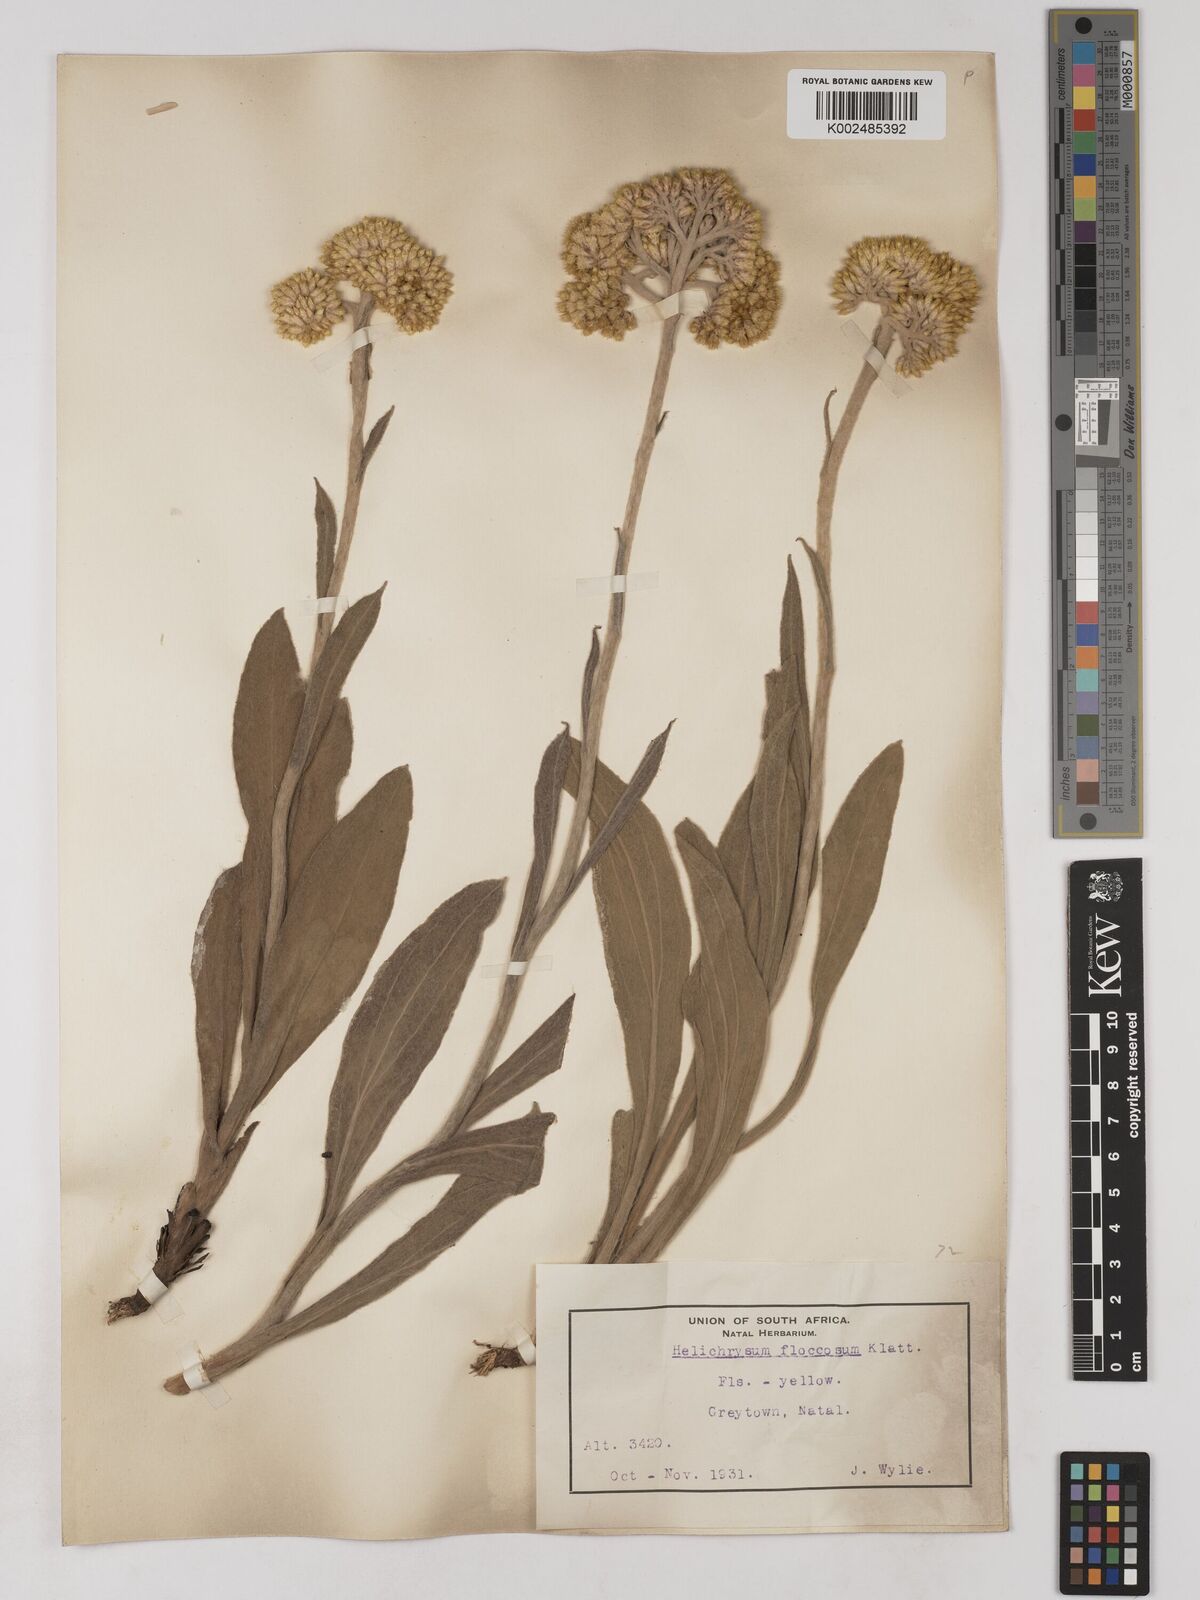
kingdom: Plantae
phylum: Tracheophyta
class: Magnoliopsida
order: Asterales
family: Asteraceae
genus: Helichrysum
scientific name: Helichrysum acutatum
